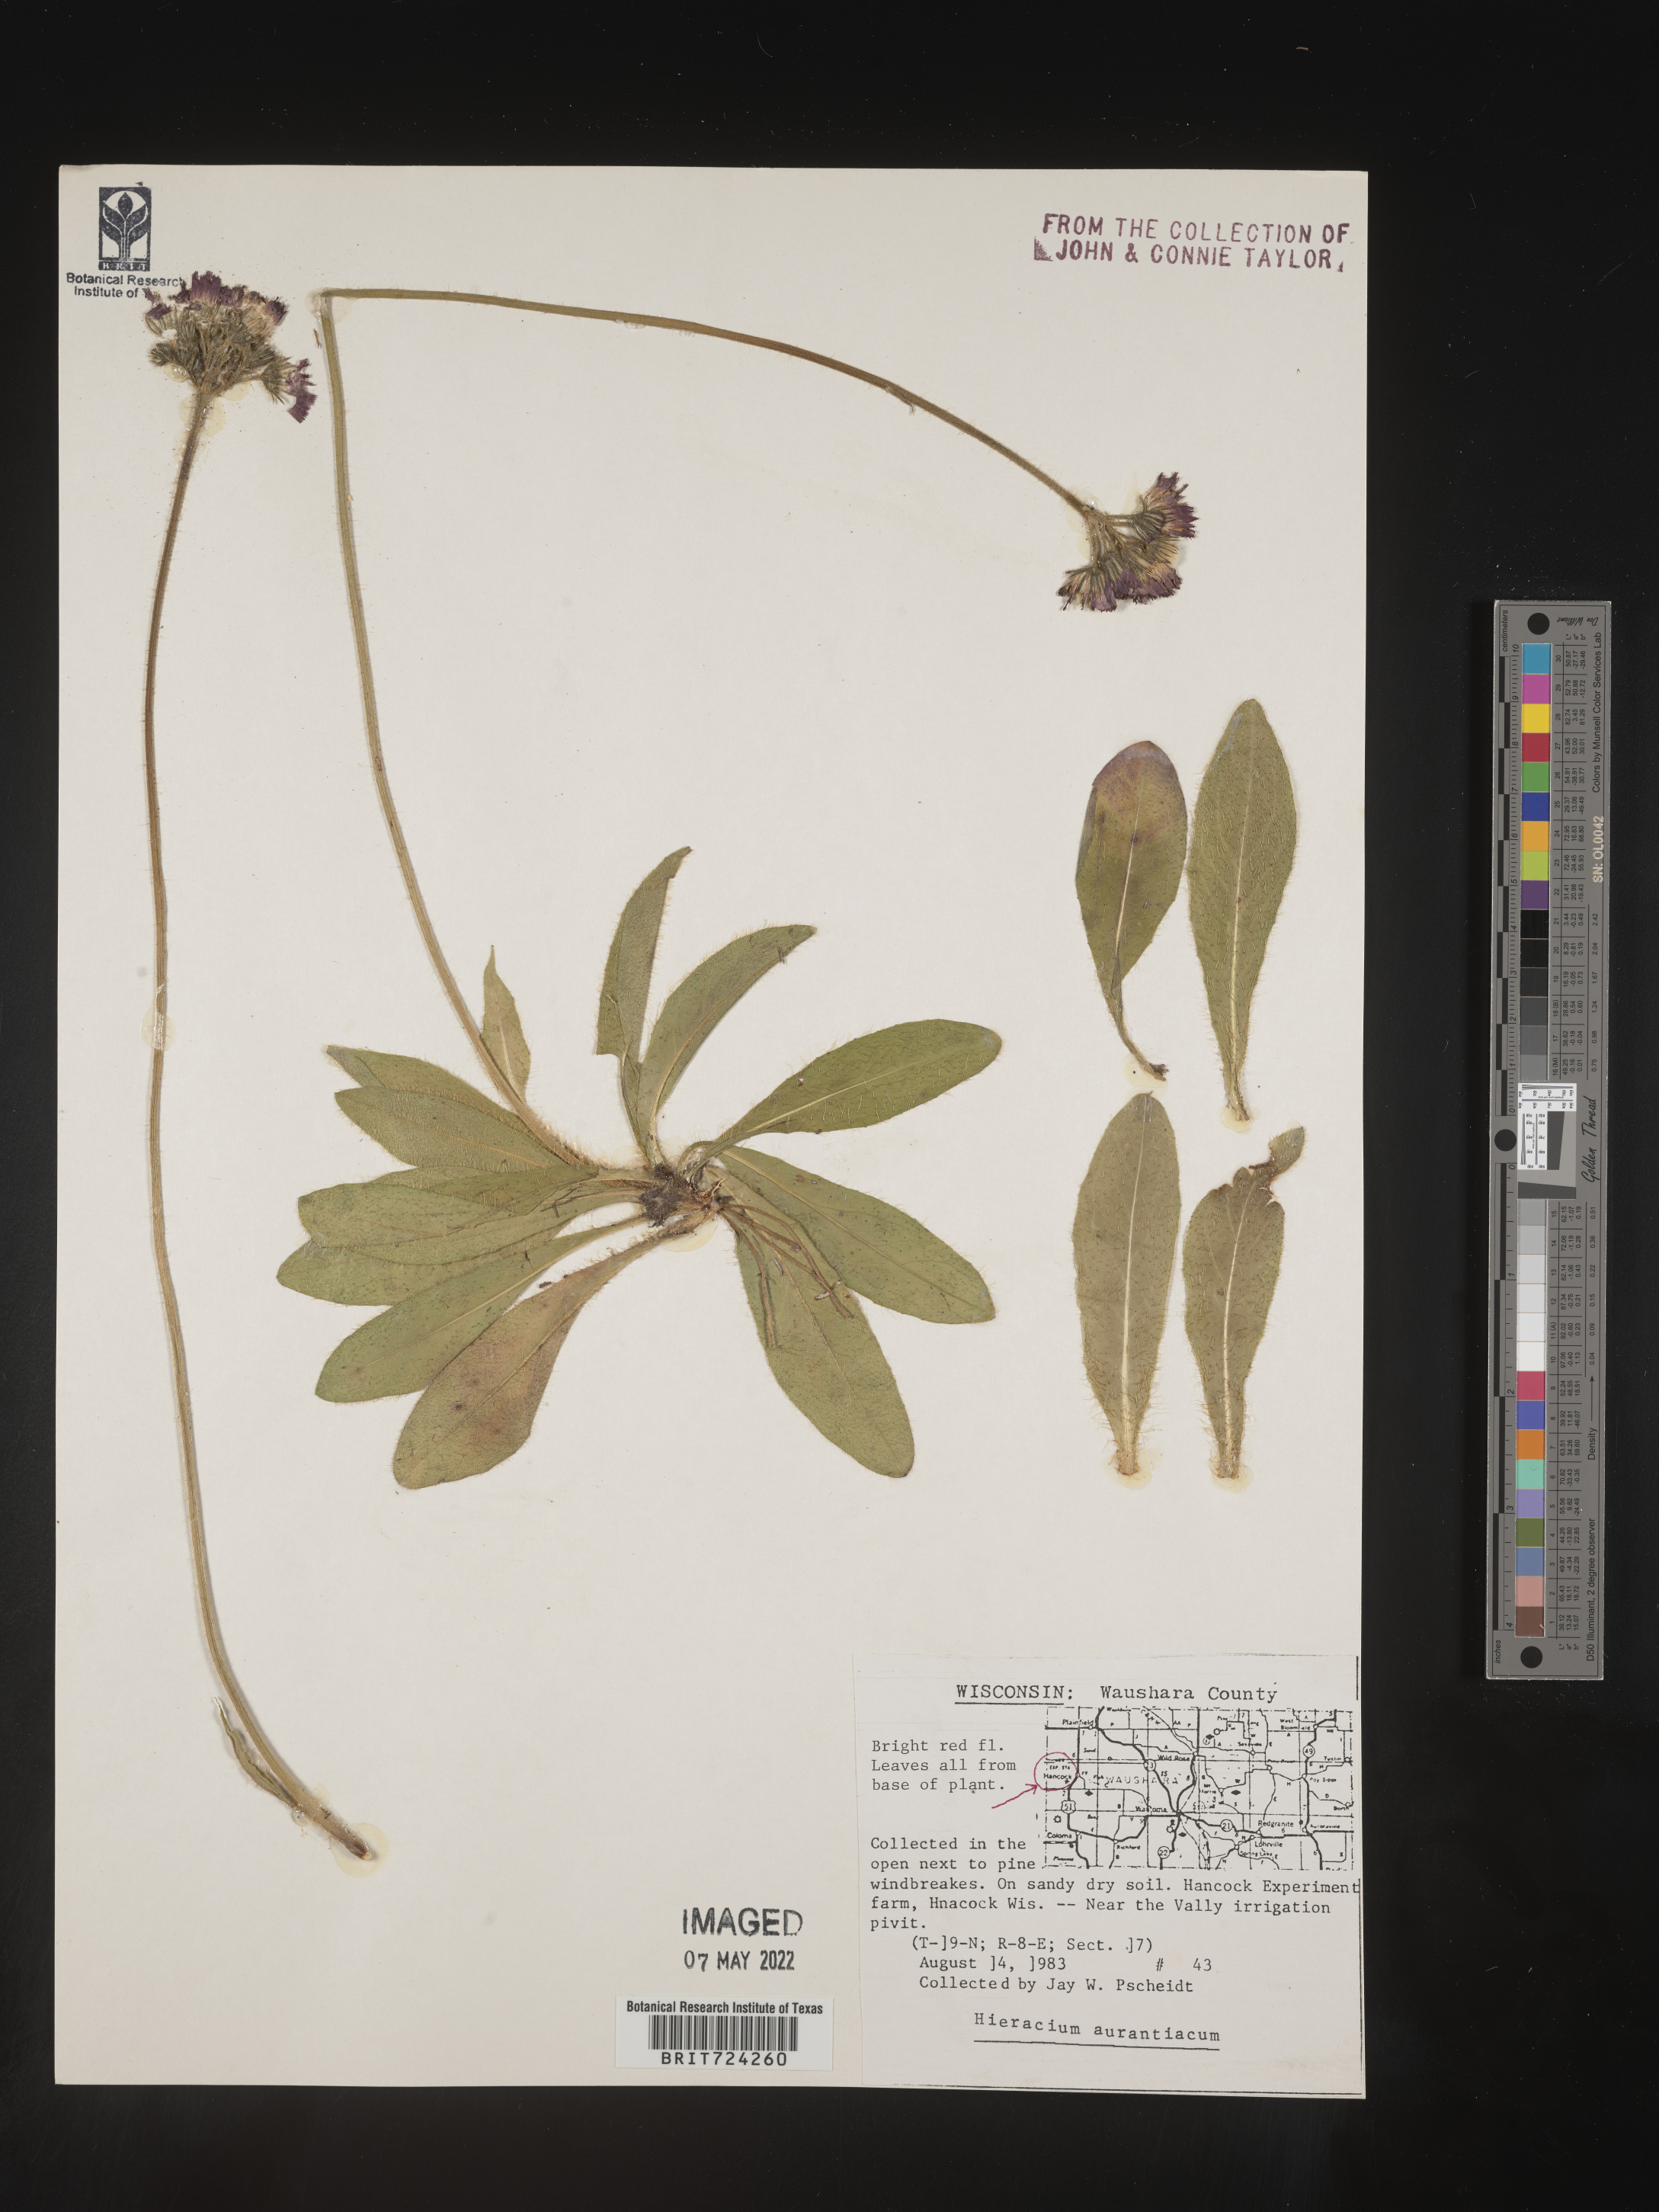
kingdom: Plantae
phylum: Tracheophyta
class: Magnoliopsida
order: Asterales
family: Asteraceae
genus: Pilosella
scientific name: Pilosella aurantiaca
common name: Fox-and-cubs
